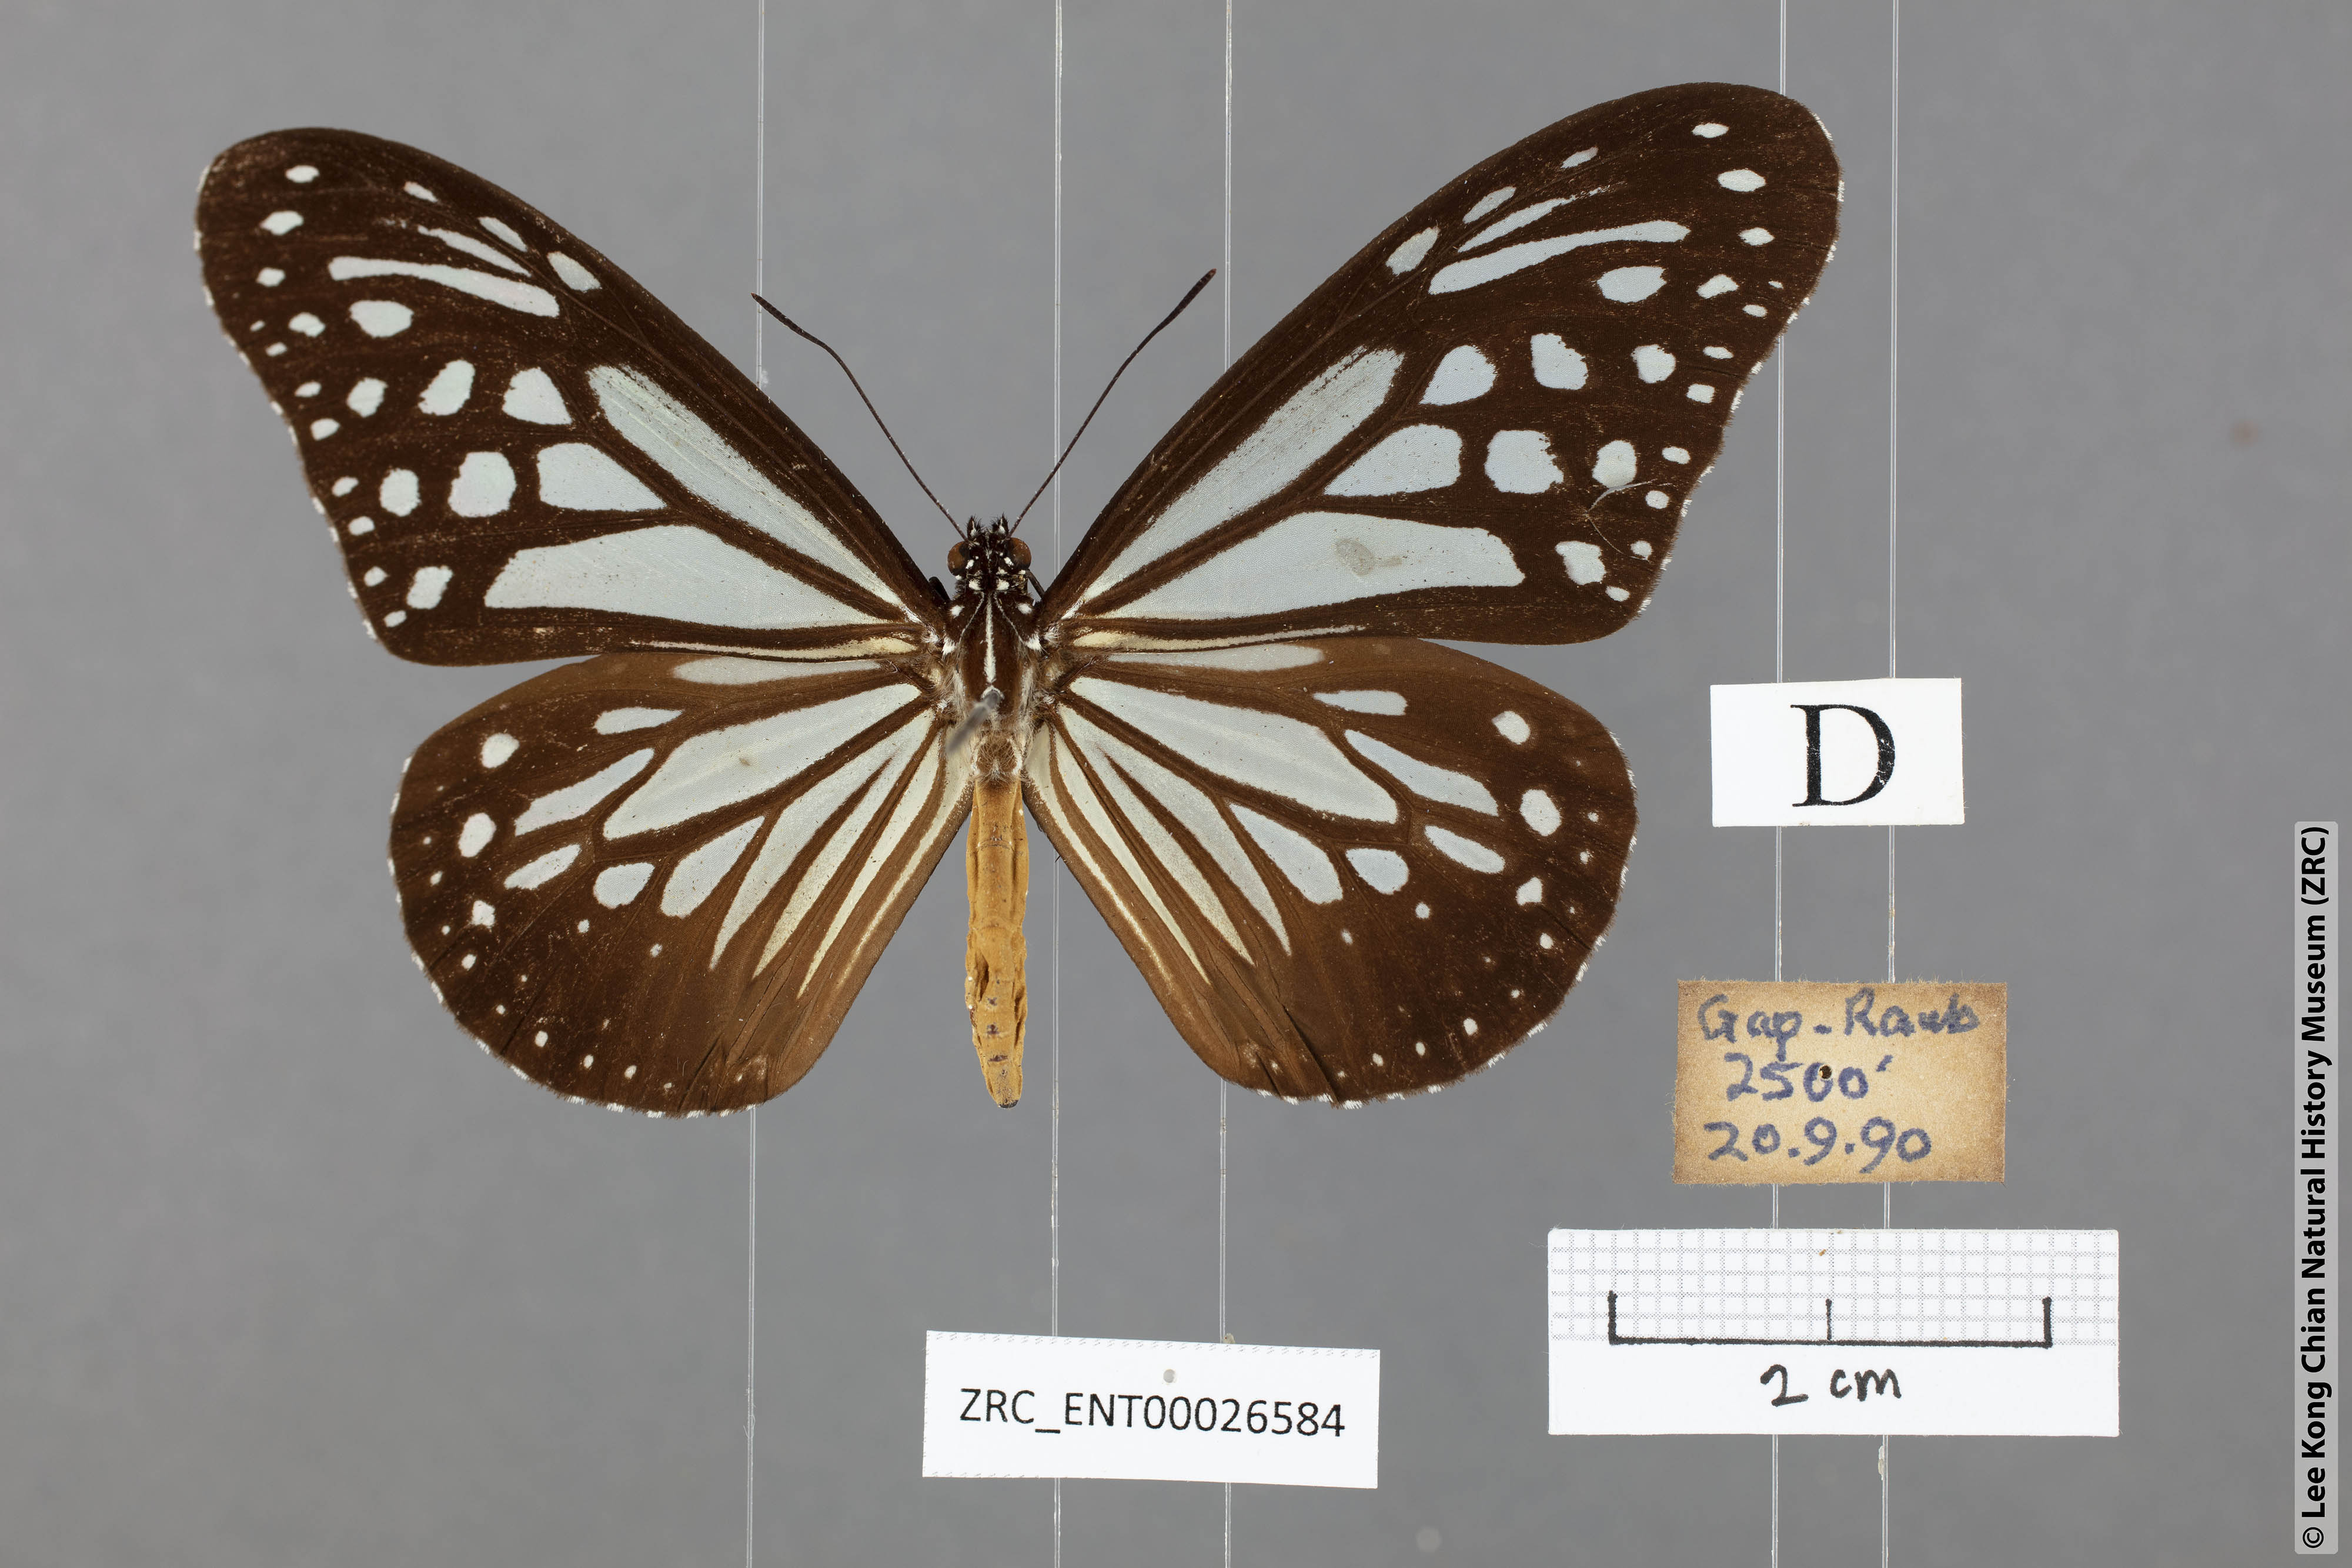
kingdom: Animalia
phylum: Arthropoda
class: Insecta
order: Lepidoptera
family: Nymphalidae
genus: Parantica
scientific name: Parantica melaneus
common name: Chocolate tiger
